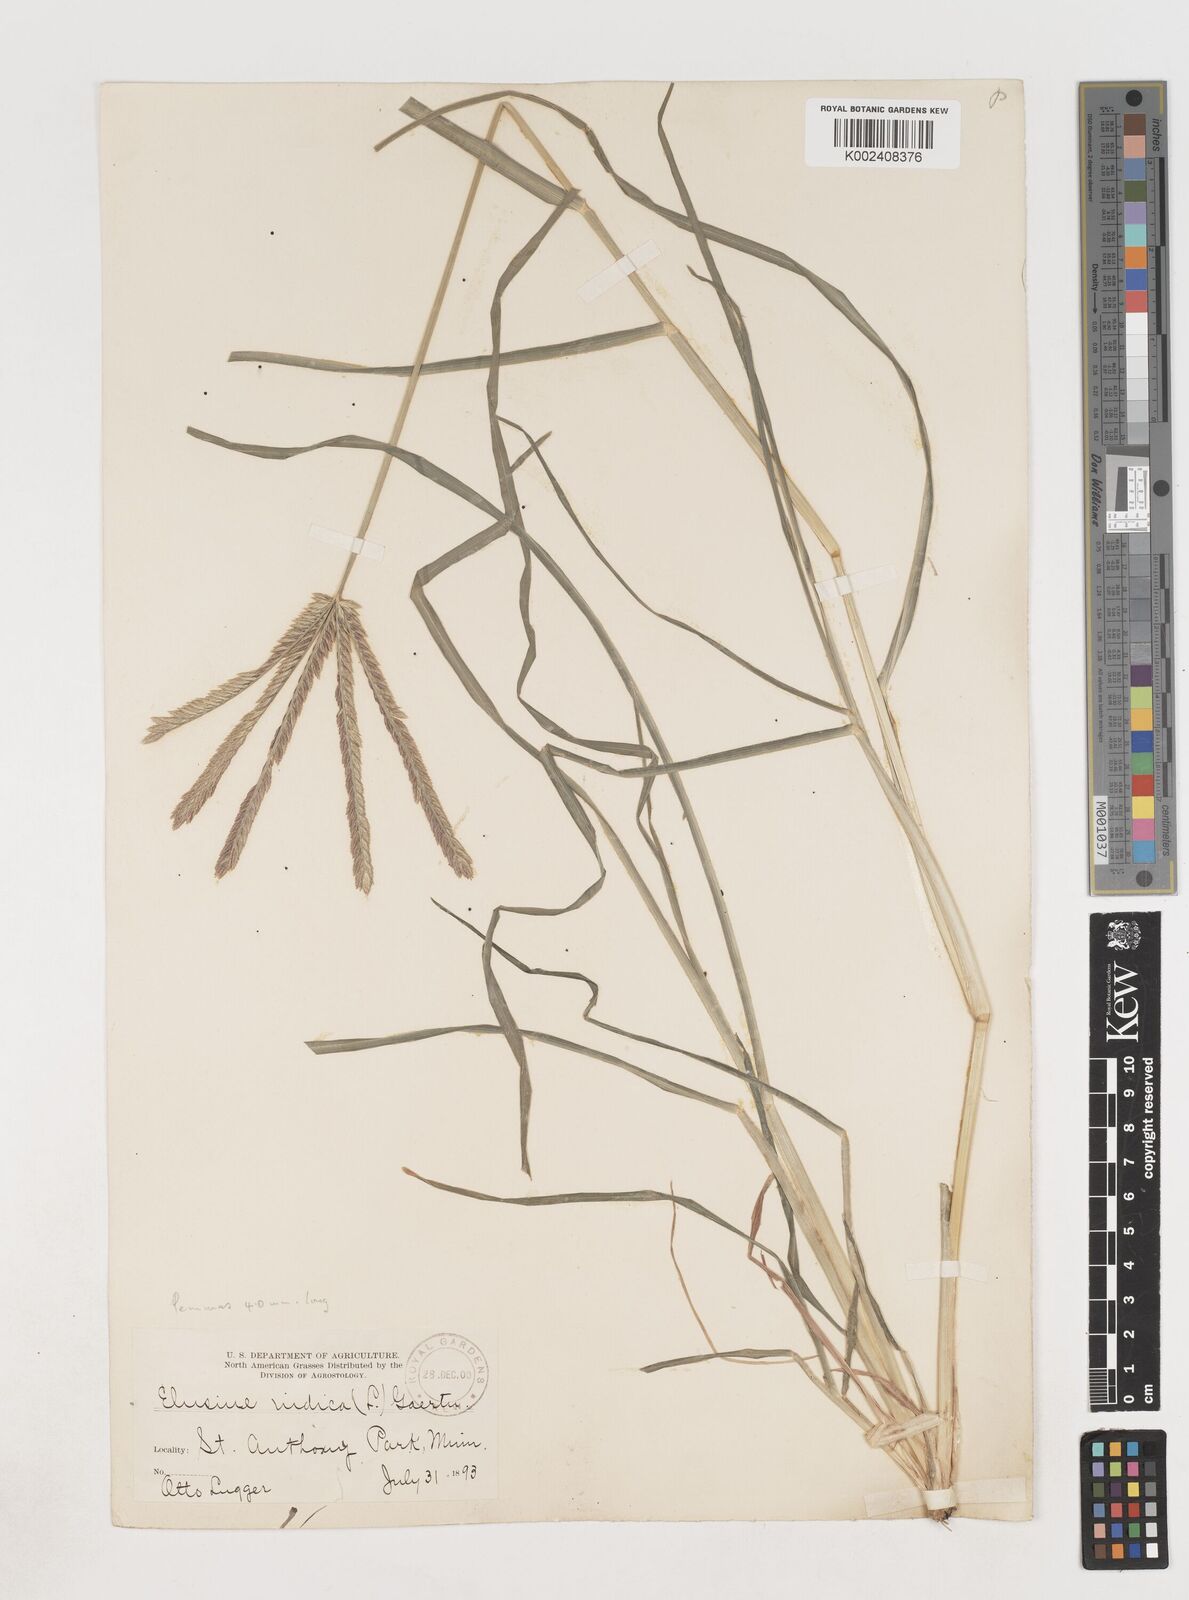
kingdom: Plantae
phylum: Tracheophyta
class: Liliopsida
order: Poales
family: Poaceae
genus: Eleusine
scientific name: Eleusine indica
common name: Yard-grass
